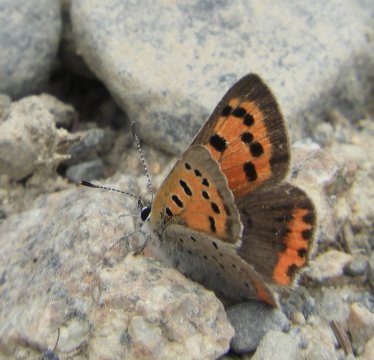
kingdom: Animalia
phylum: Arthropoda
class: Insecta
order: Lepidoptera
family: Lycaenidae
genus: Lycaena
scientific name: Lycaena phlaeas
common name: American Copper
